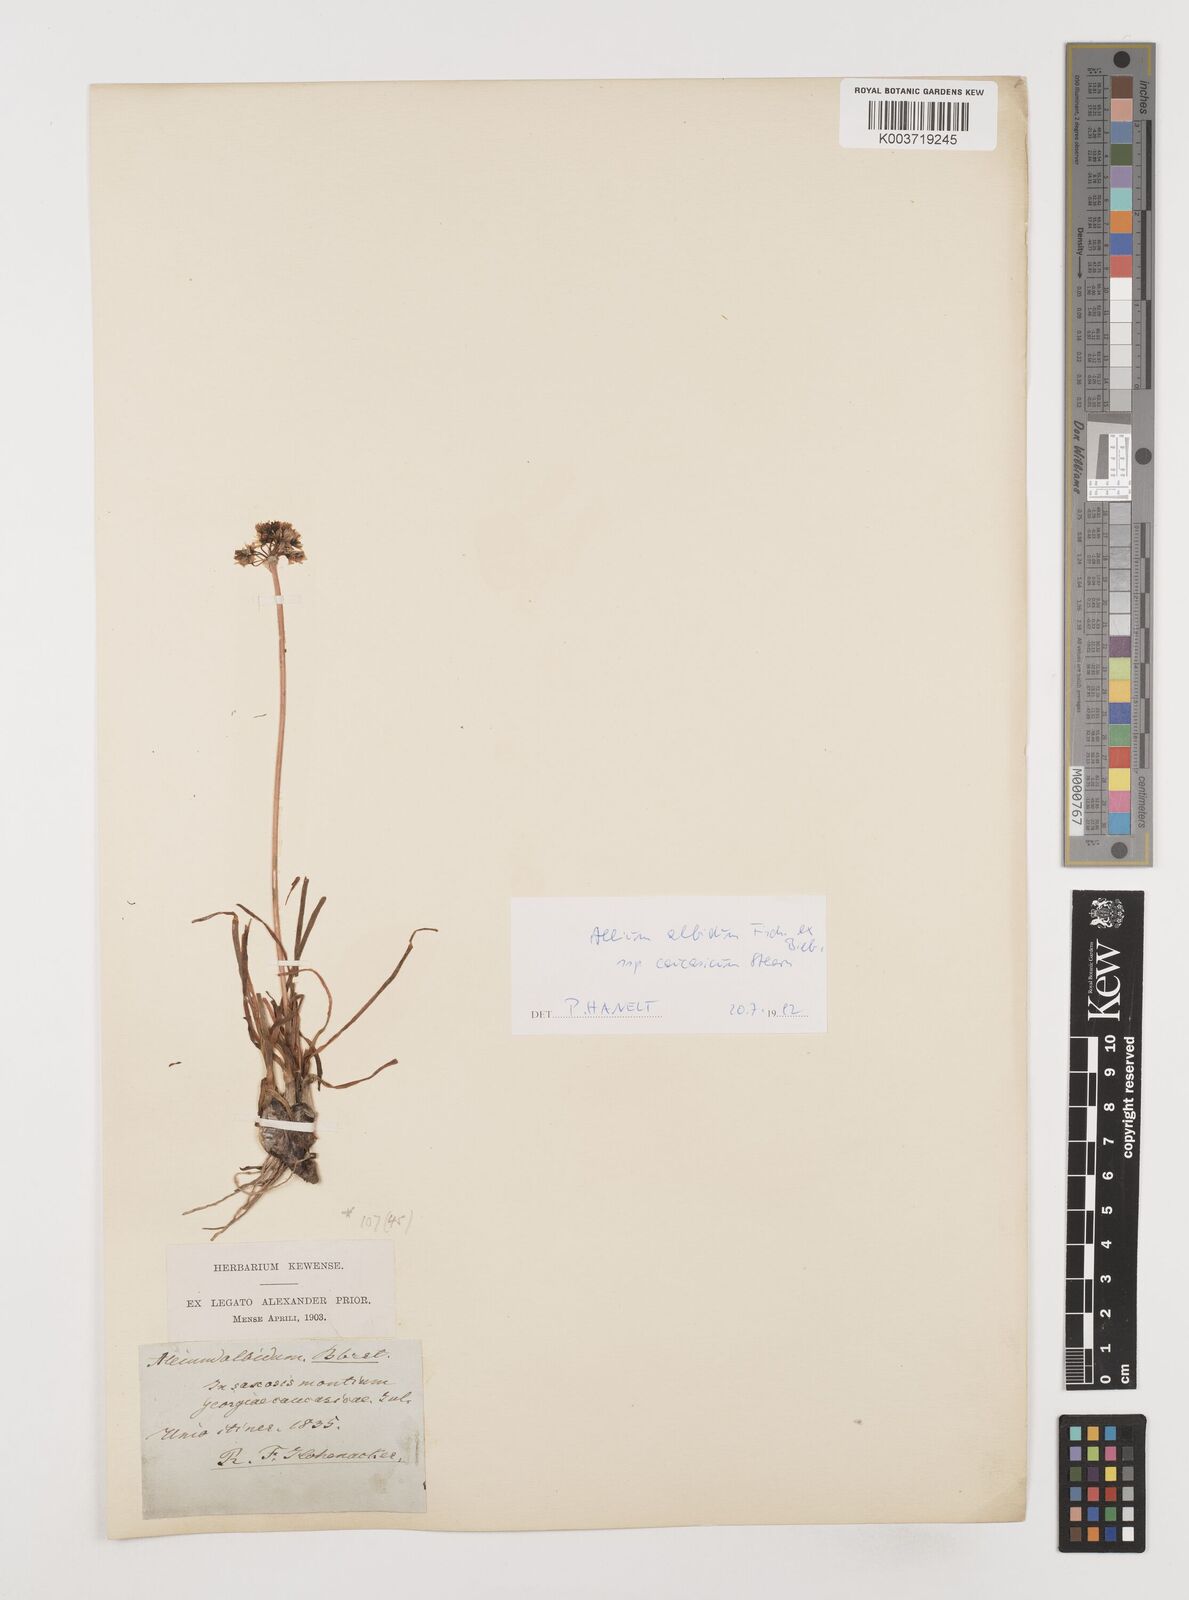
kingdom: Plantae
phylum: Tracheophyta
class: Liliopsida
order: Asparagales
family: Amaryllidaceae
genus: Allium
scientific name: Allium denudatum
